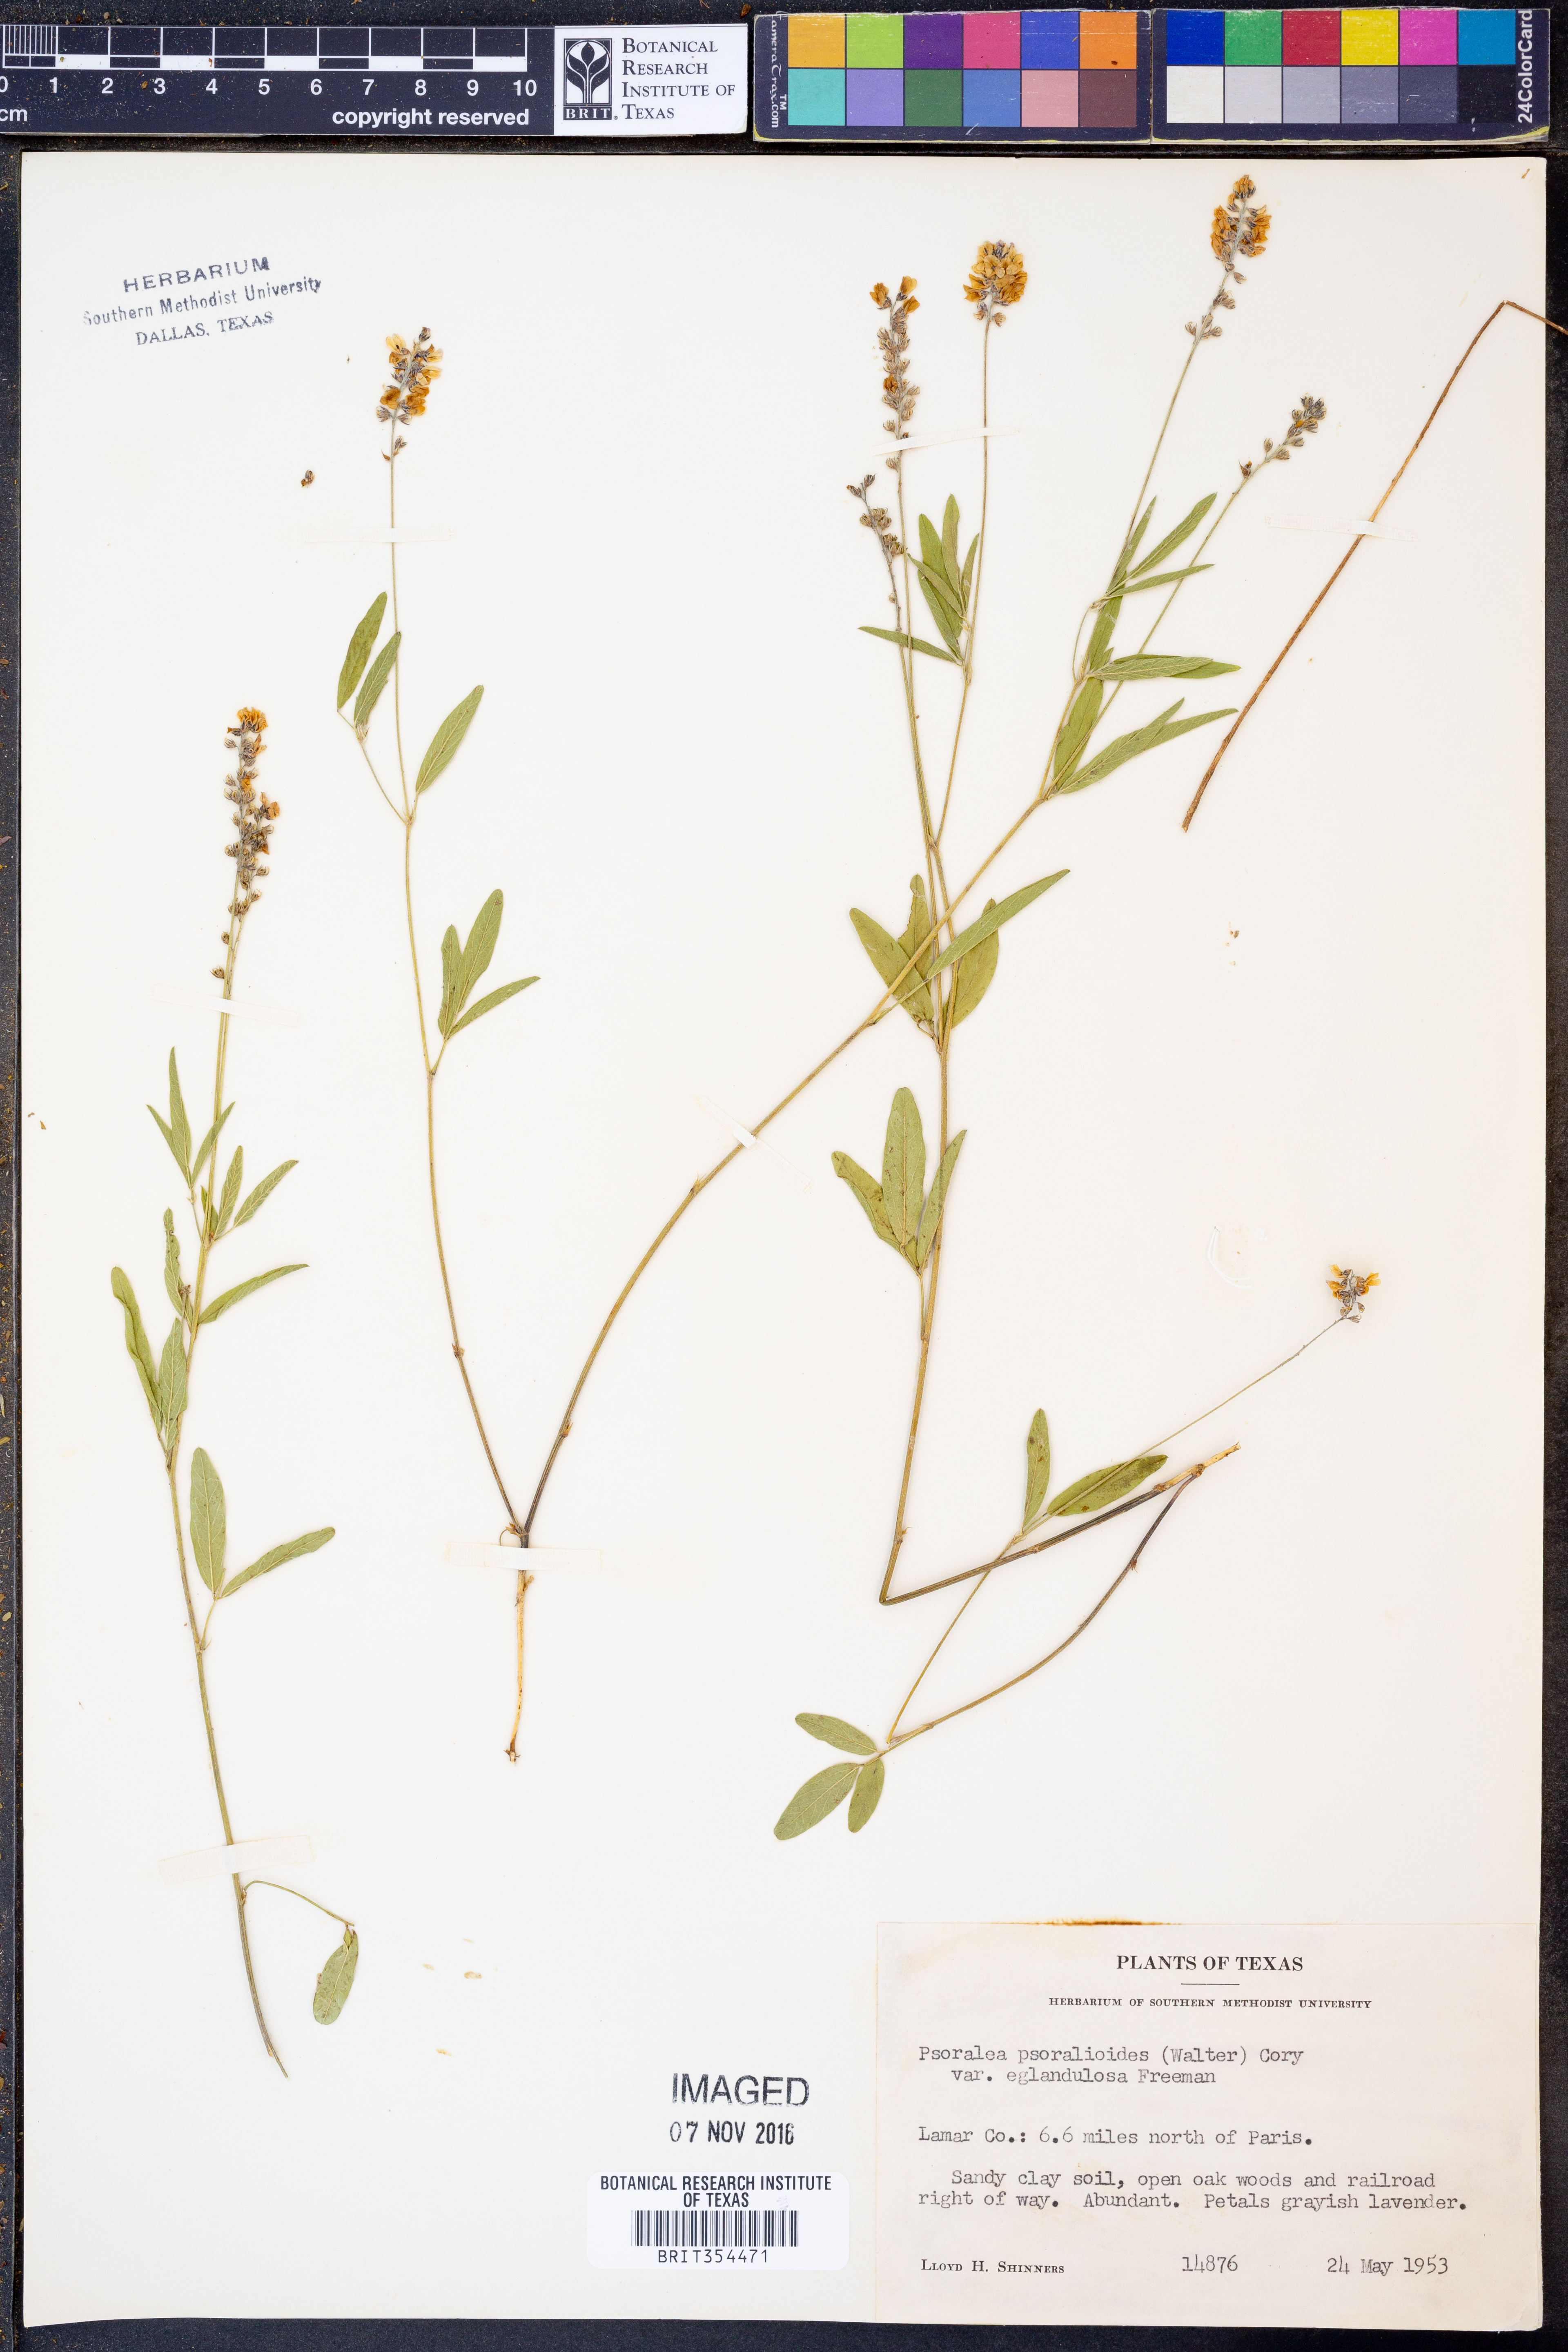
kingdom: Plantae
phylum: Tracheophyta
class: Magnoliopsida
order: Fabales
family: Fabaceae
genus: Orbexilum
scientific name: Orbexilum pedunculatum
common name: Sampson's snakeroot
